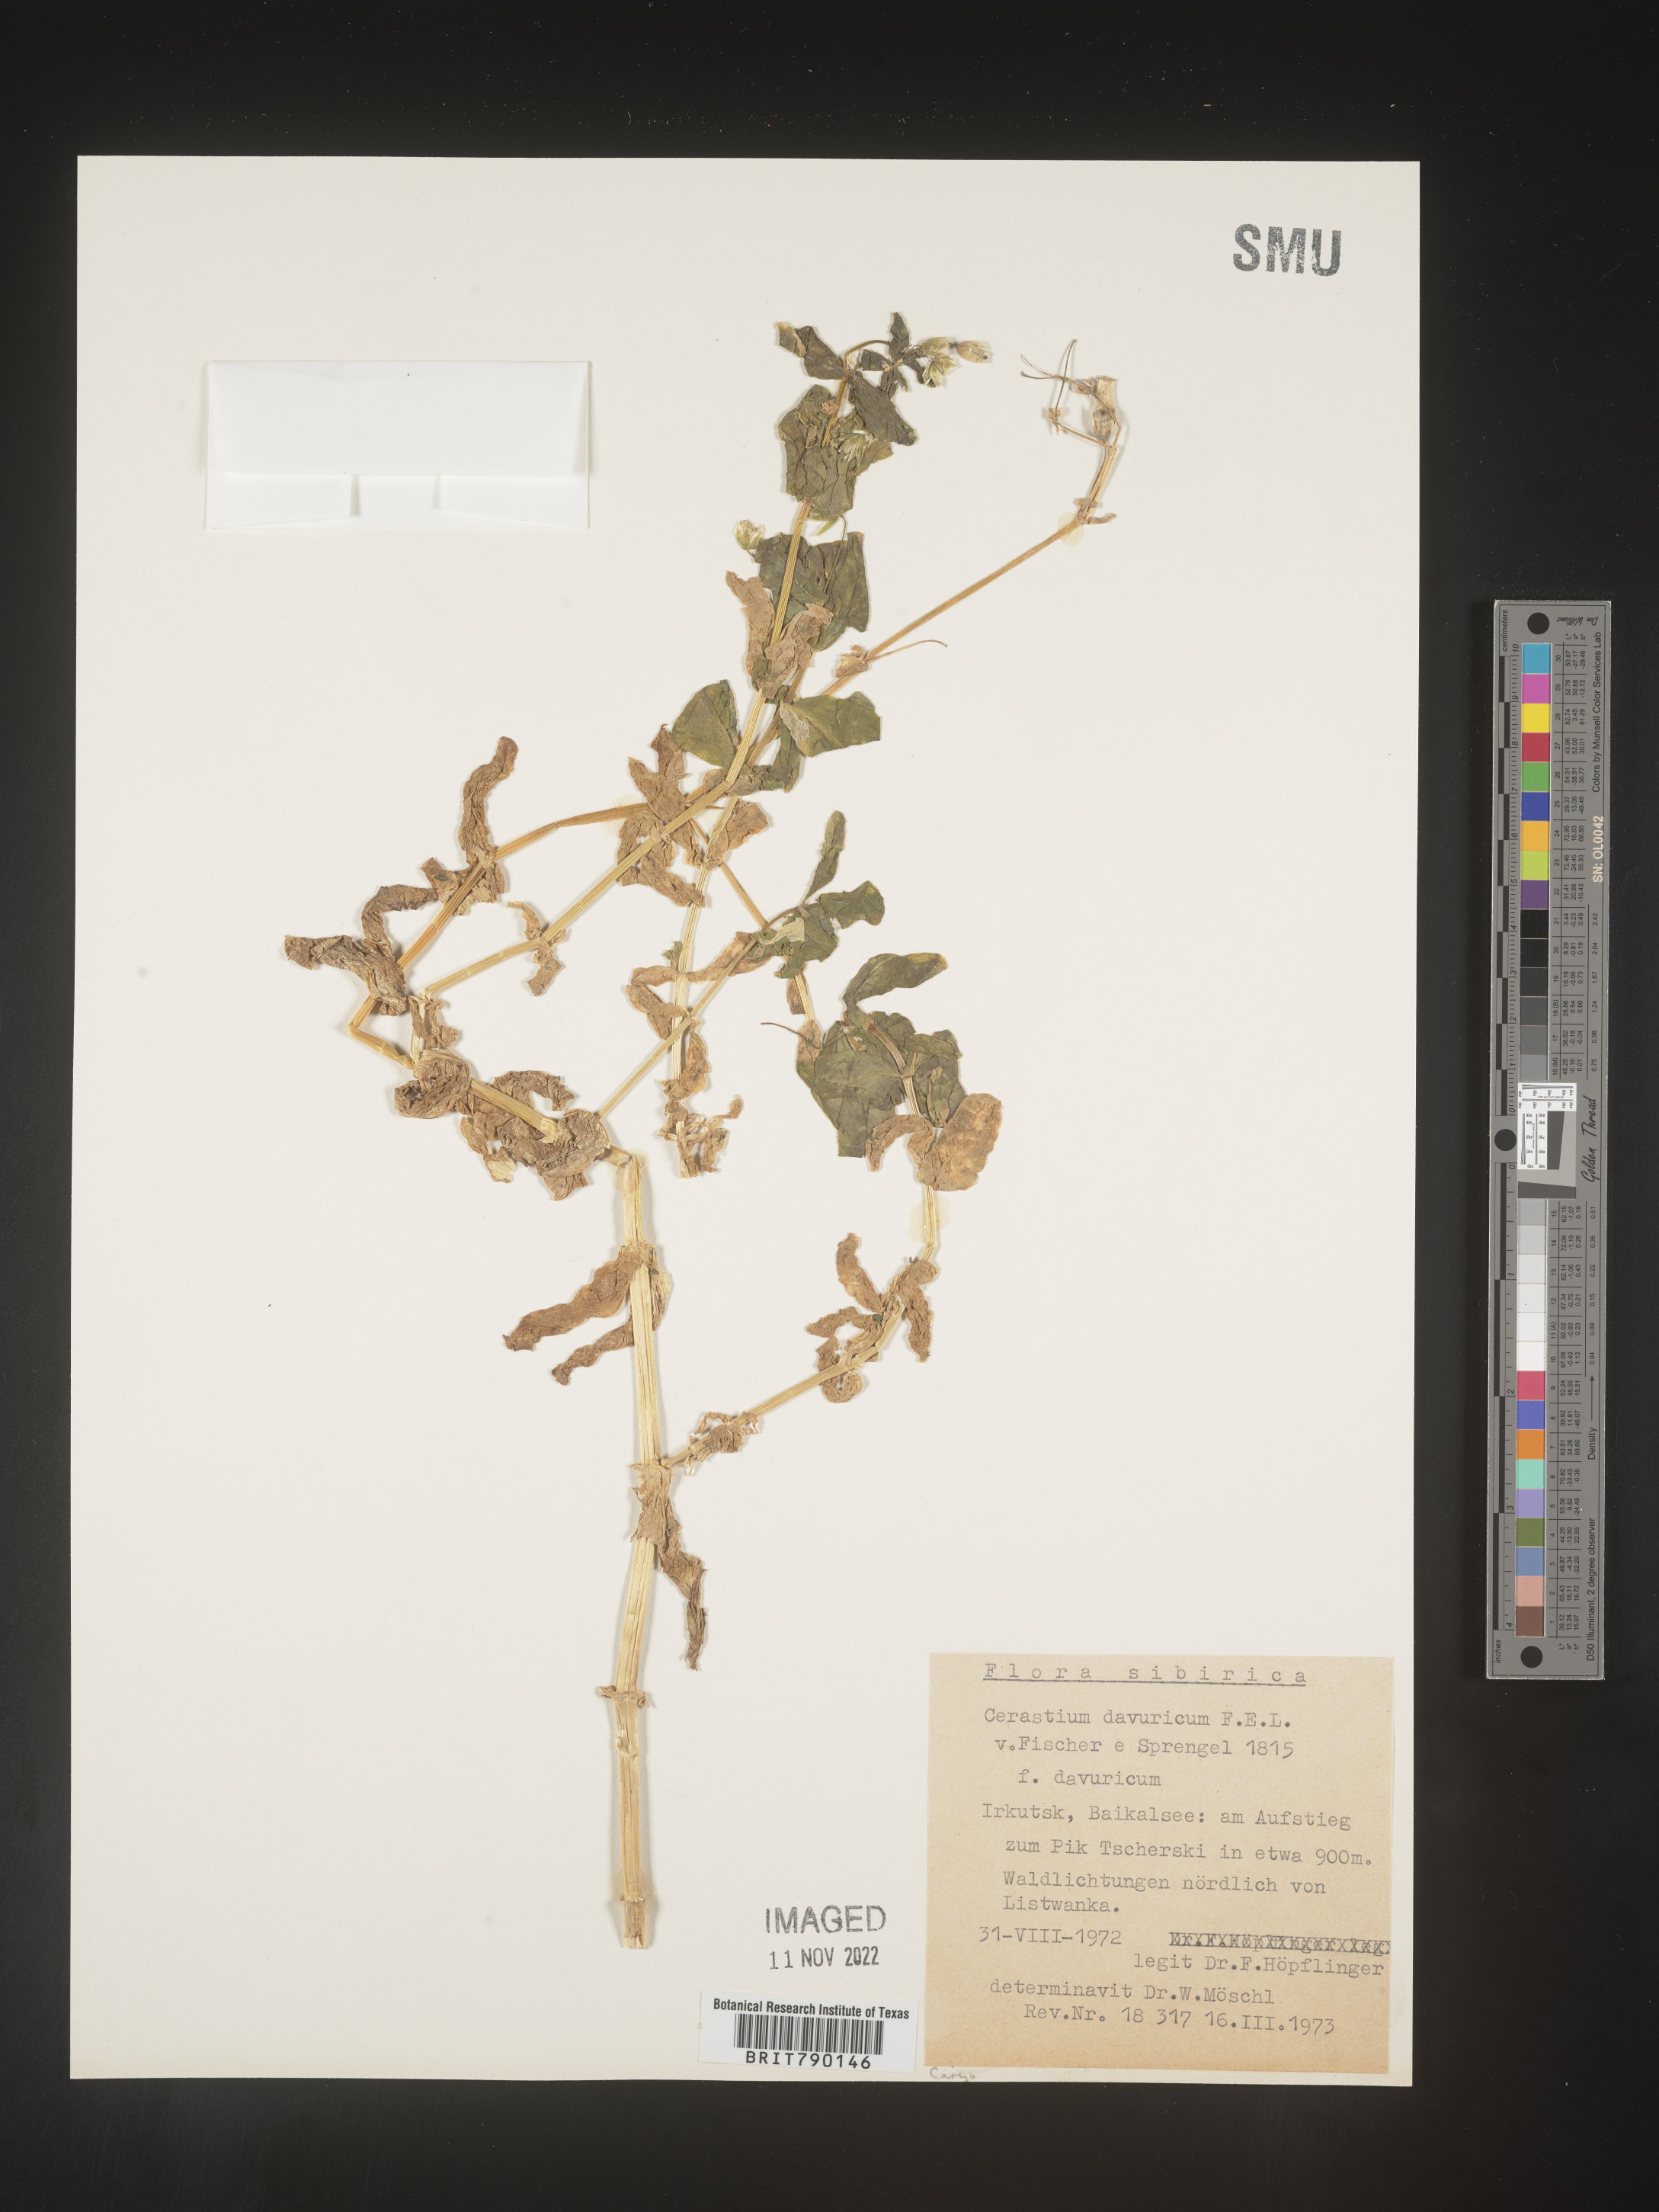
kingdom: Plantae
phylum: Tracheophyta
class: Magnoliopsida
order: Caryophyllales
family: Caryophyllaceae
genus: Cerastium
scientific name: Cerastium
